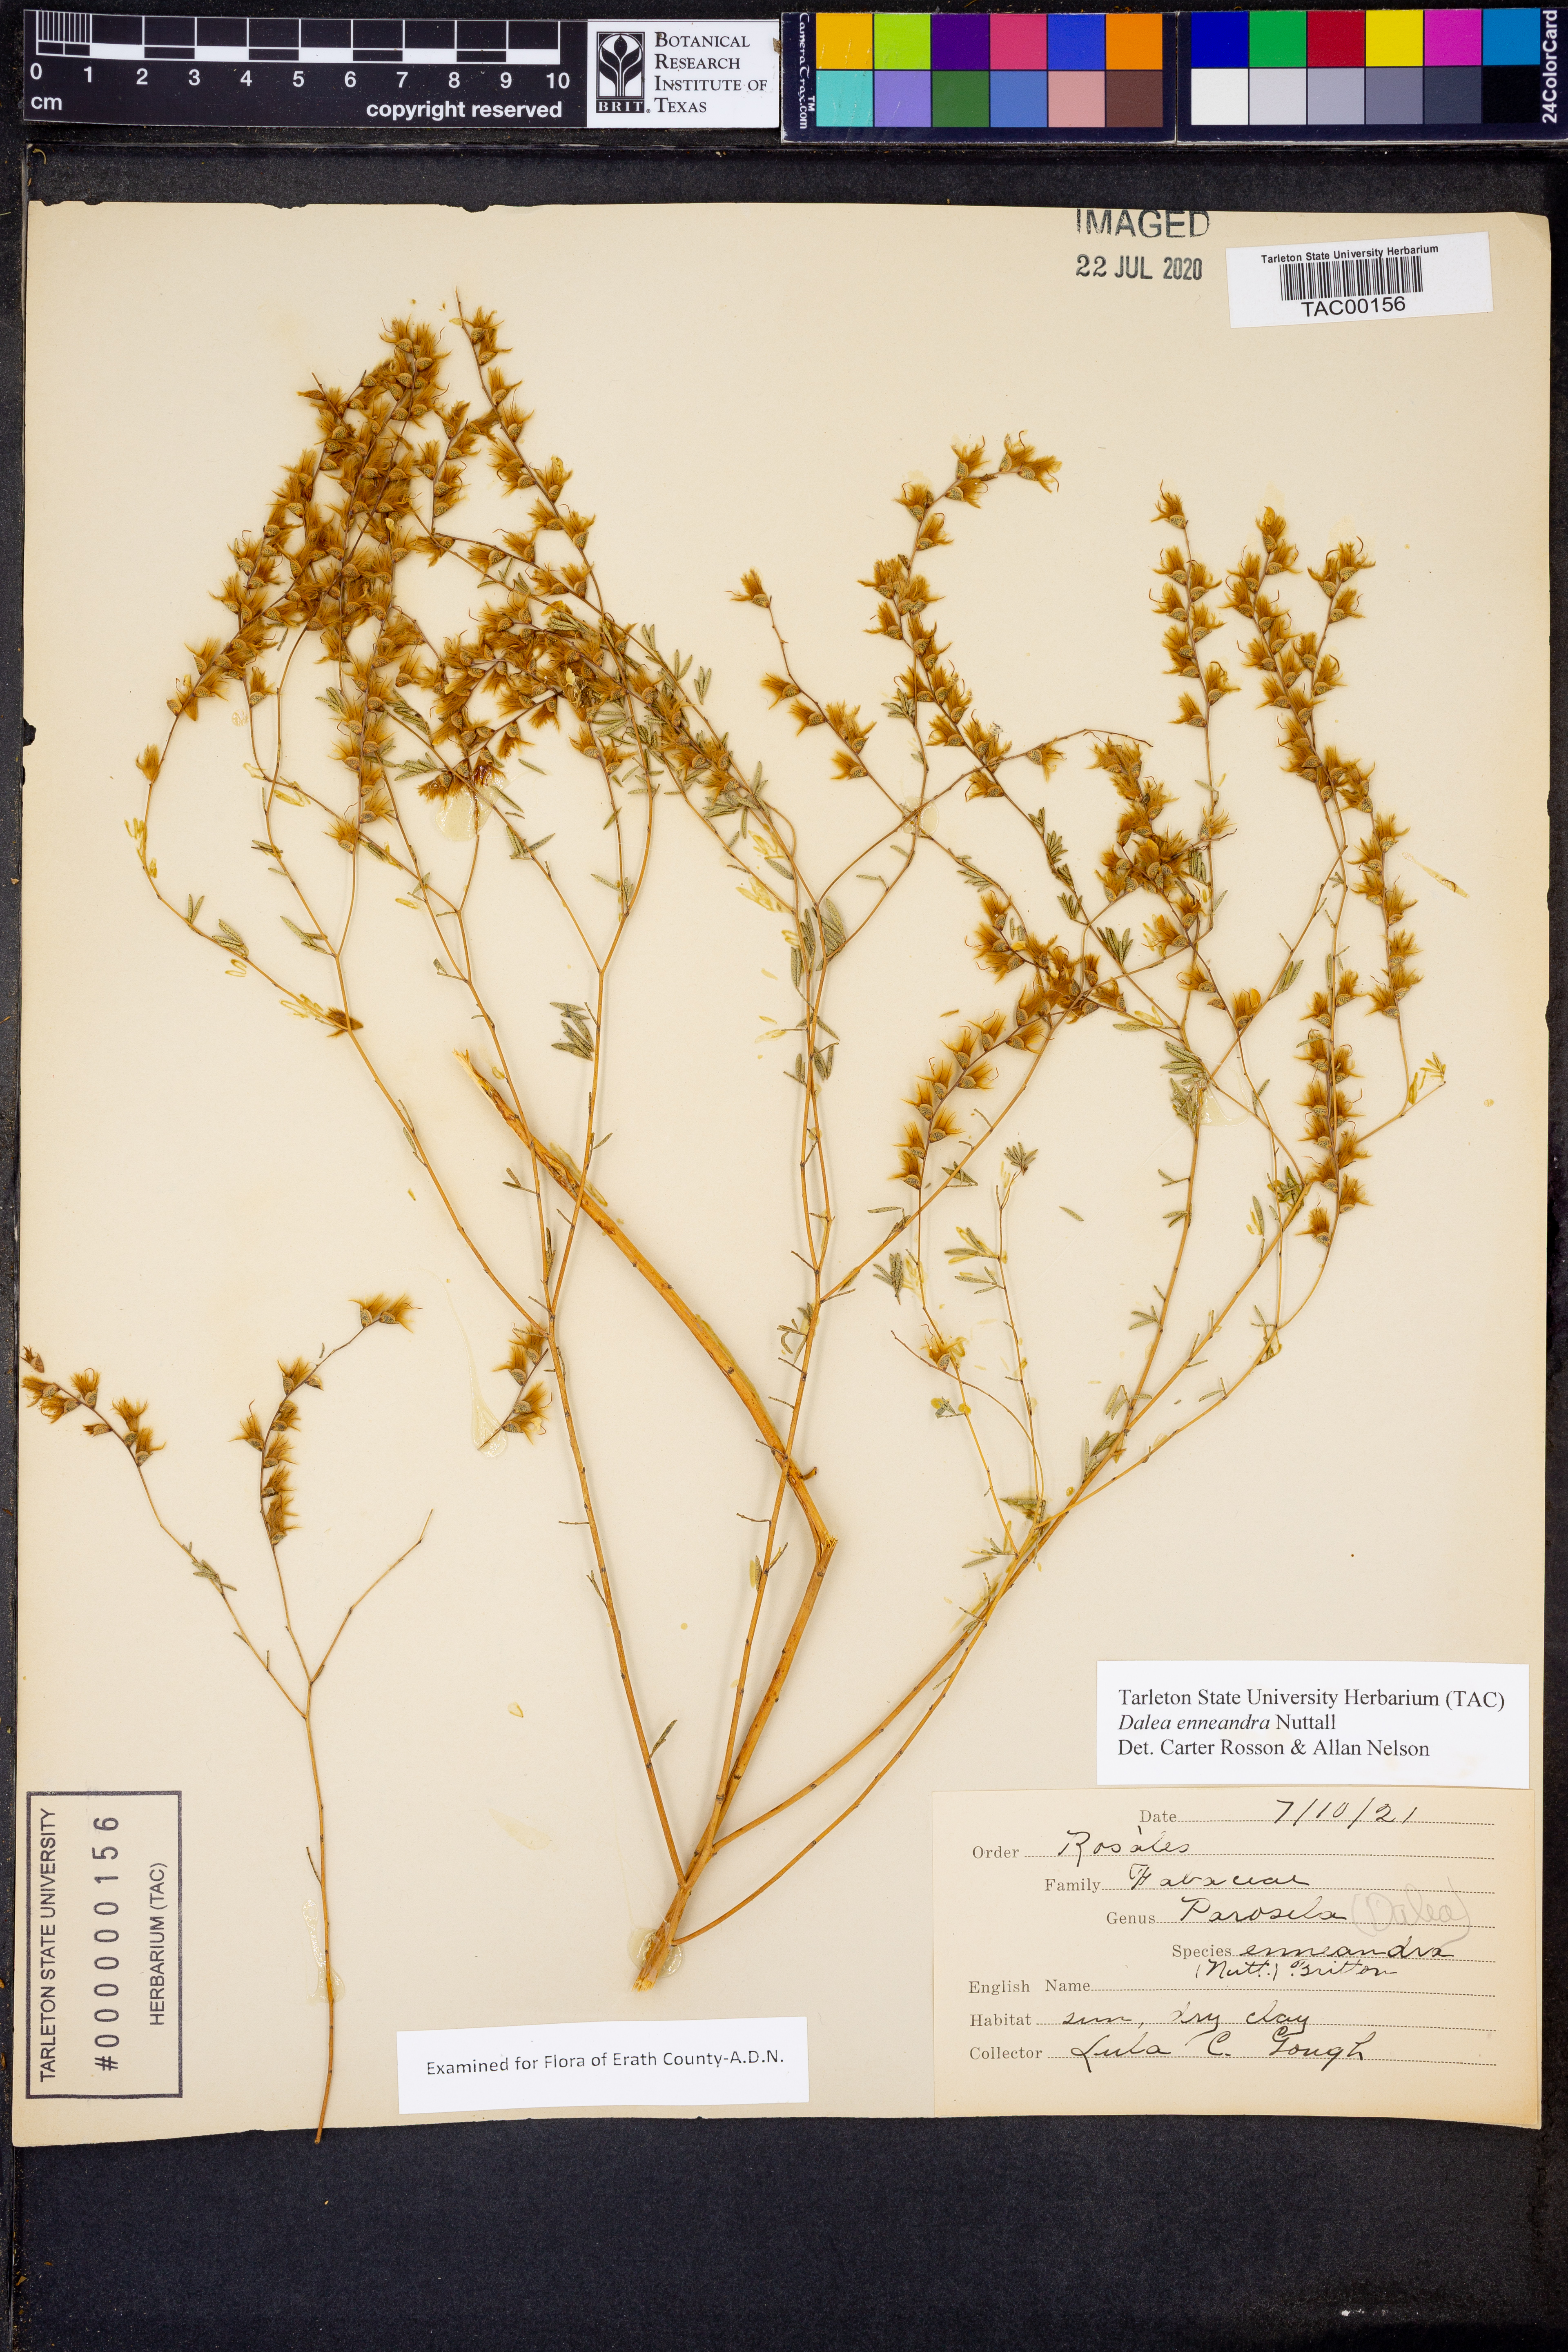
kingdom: Plantae
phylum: Tracheophyta
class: Magnoliopsida
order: Fabales
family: Fabaceae
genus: Dalea
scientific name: Dalea enneandra
